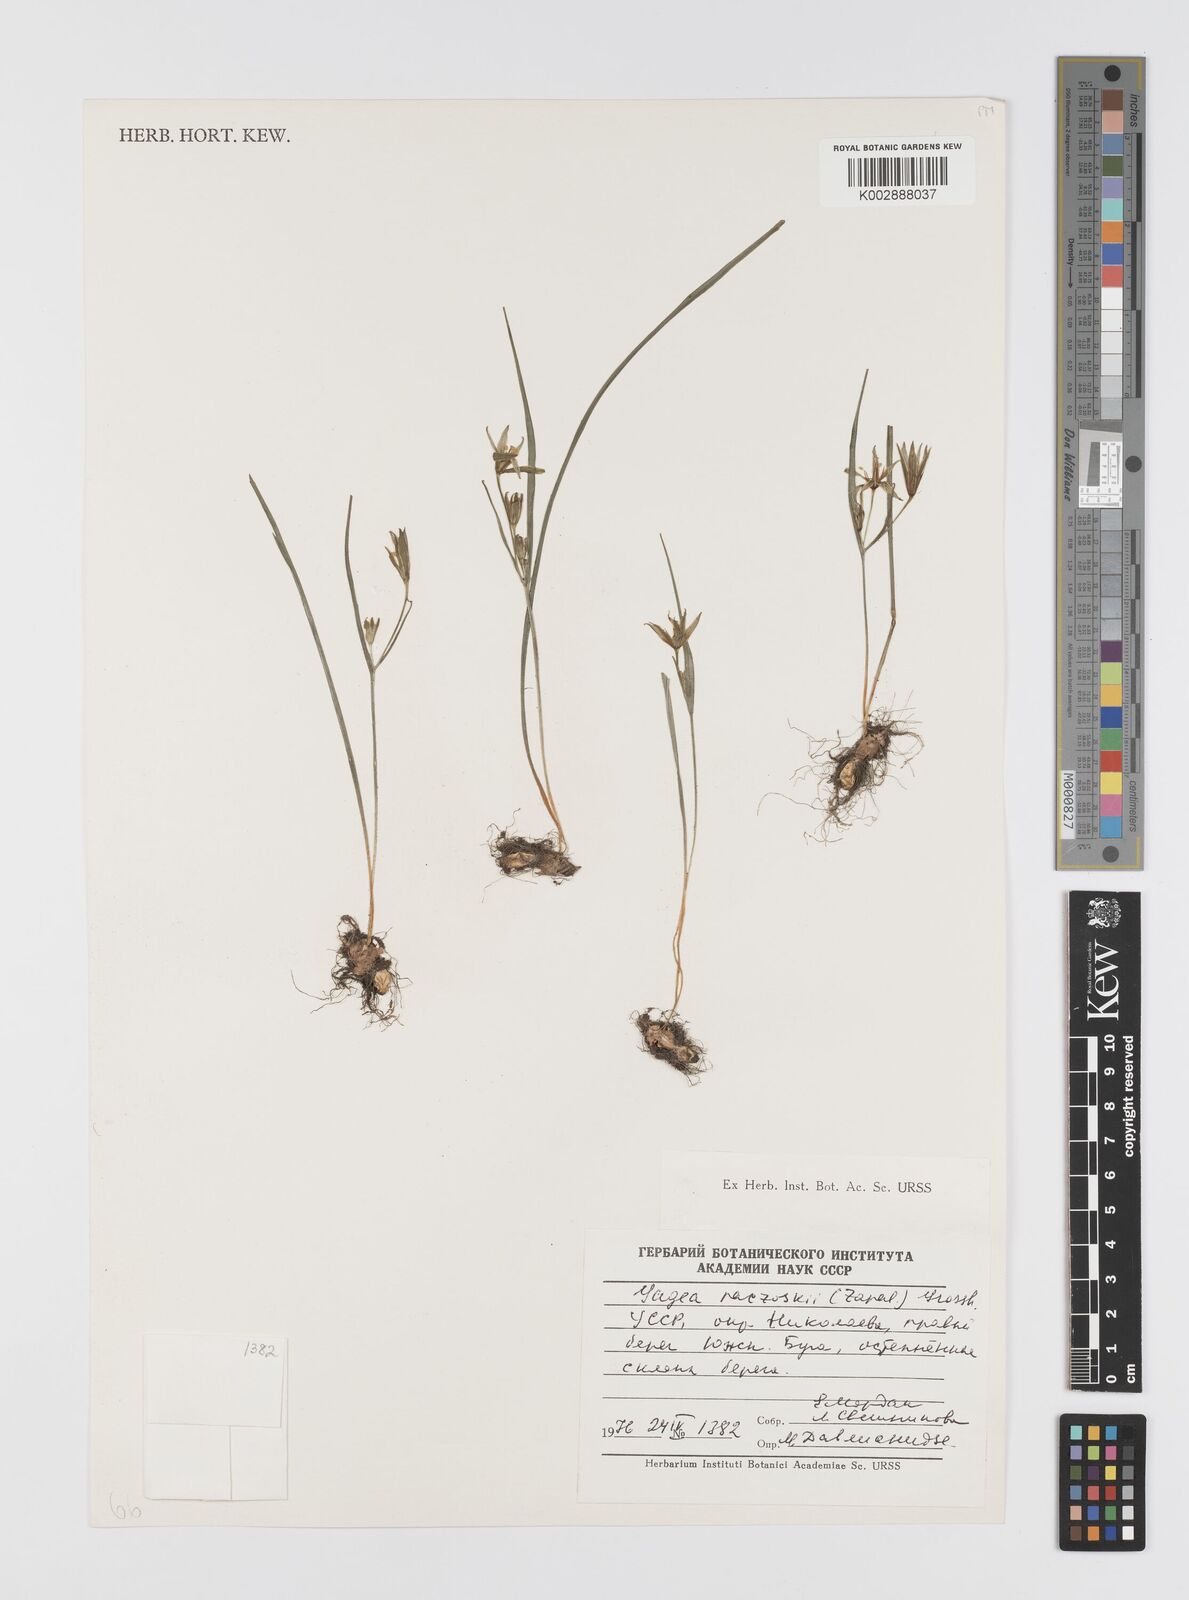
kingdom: Plantae
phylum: Tracheophyta
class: Liliopsida
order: Liliales
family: Liliaceae
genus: Gagea
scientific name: Gagea transversalis
